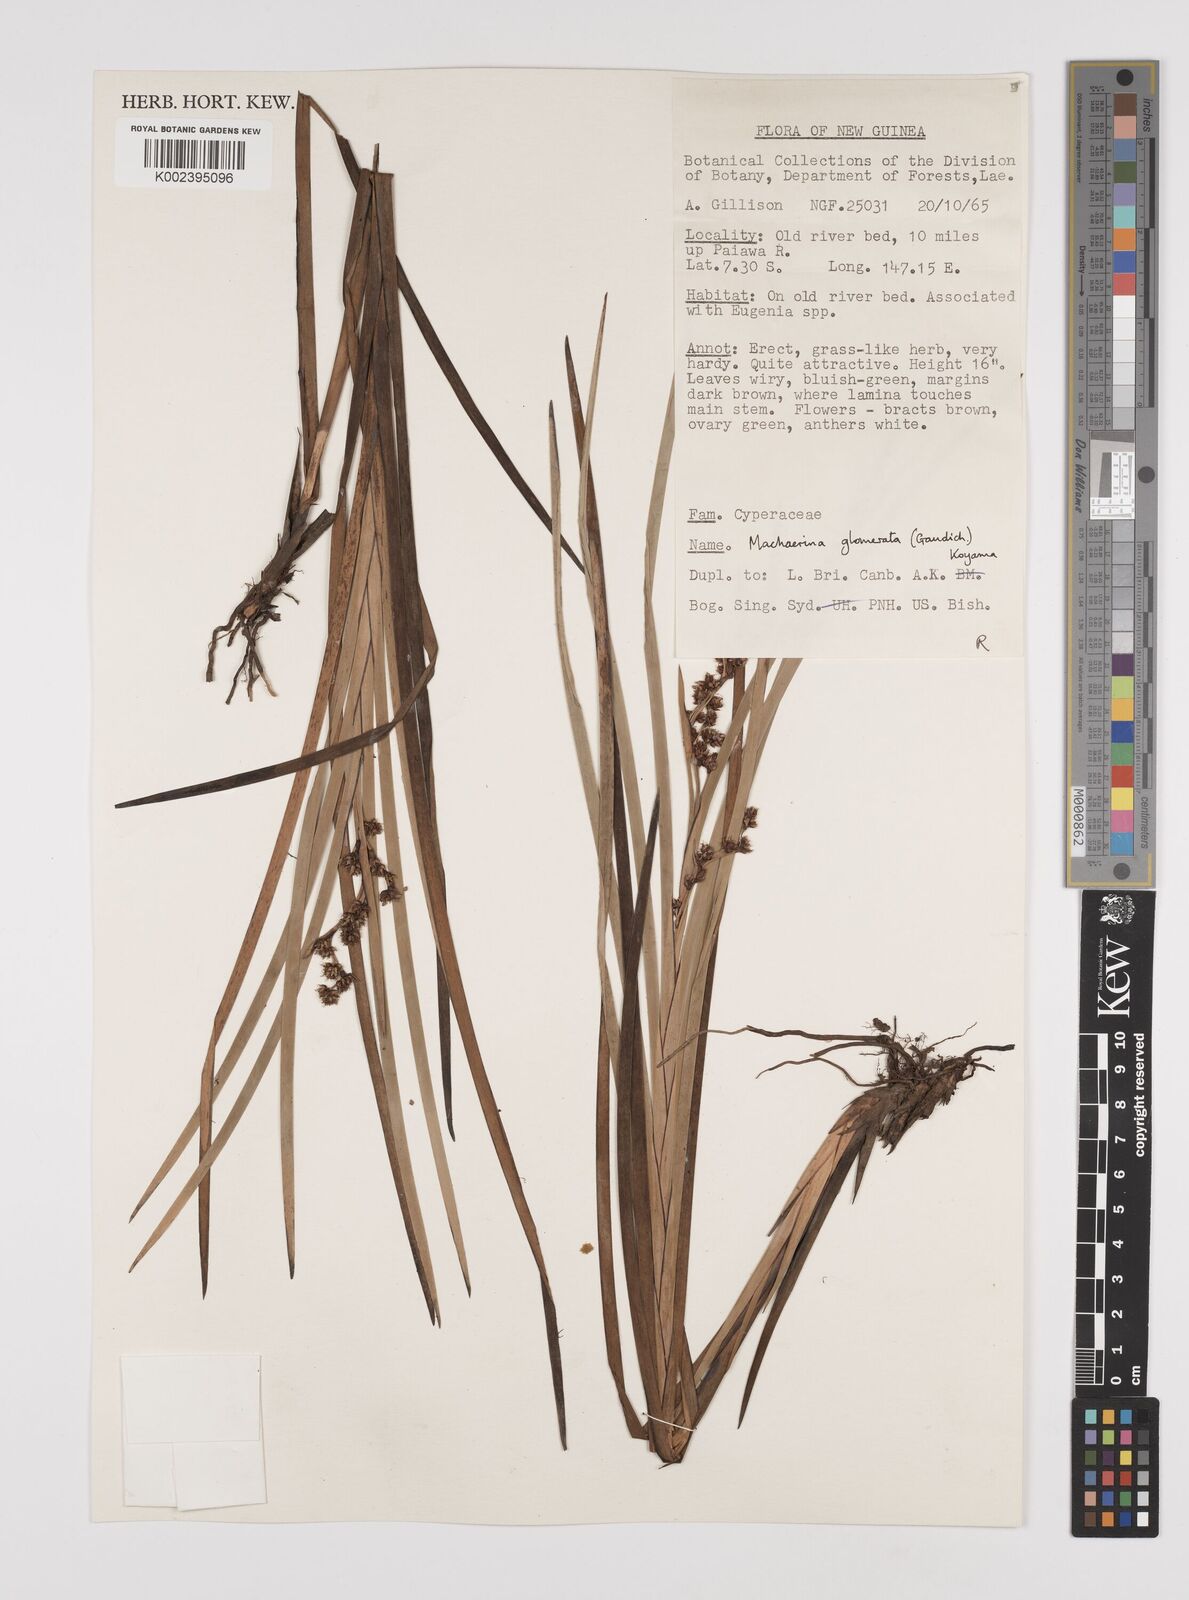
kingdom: Plantae
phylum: Tracheophyta
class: Liliopsida
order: Poales
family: Cyperaceae
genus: Machaerina
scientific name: Machaerina glomerata
